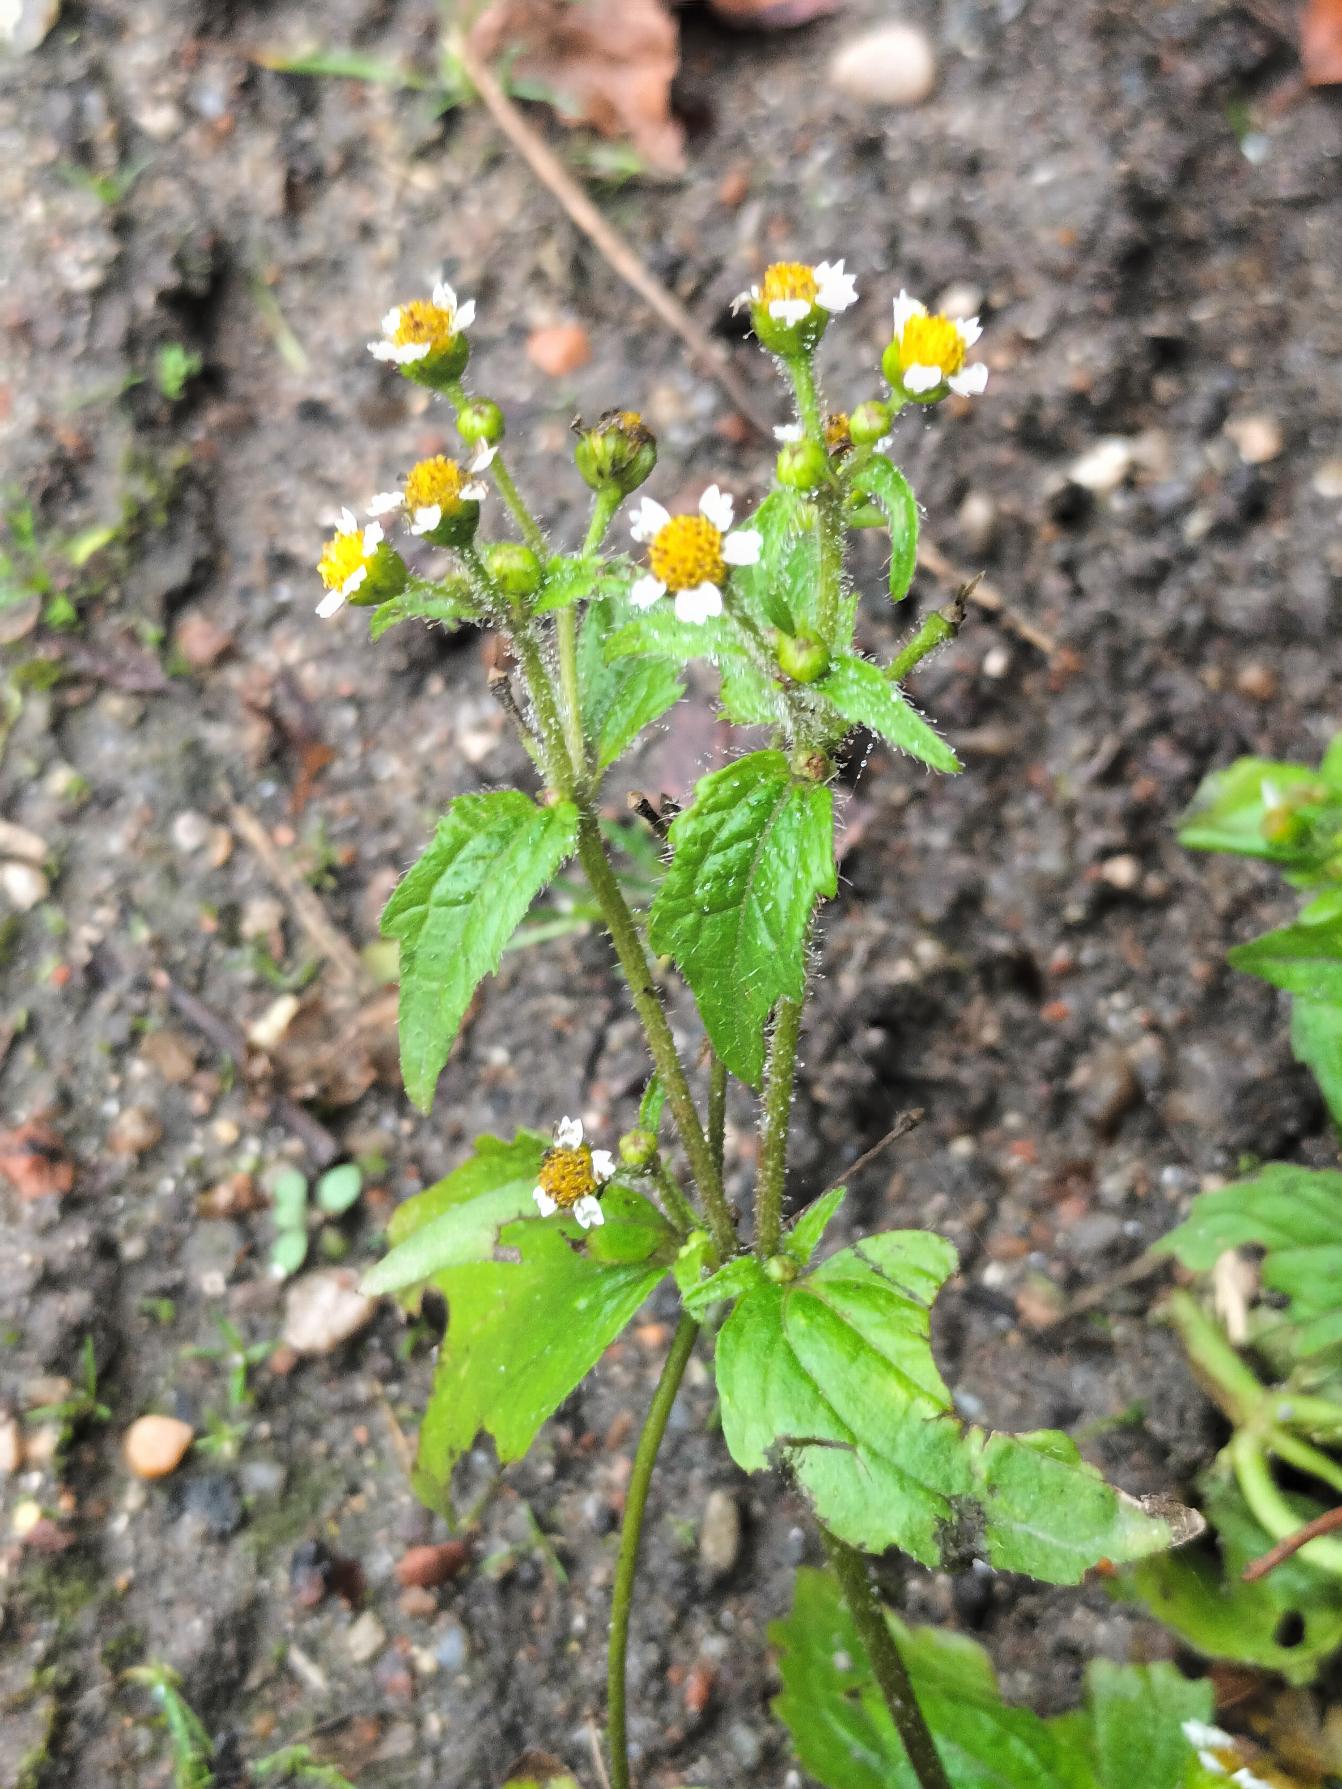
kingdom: Plantae
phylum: Tracheophyta
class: Magnoliopsida
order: Asterales
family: Asteraceae
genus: Galinsoga
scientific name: Galinsoga quadriradiata
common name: Kirtel-kortstråle
